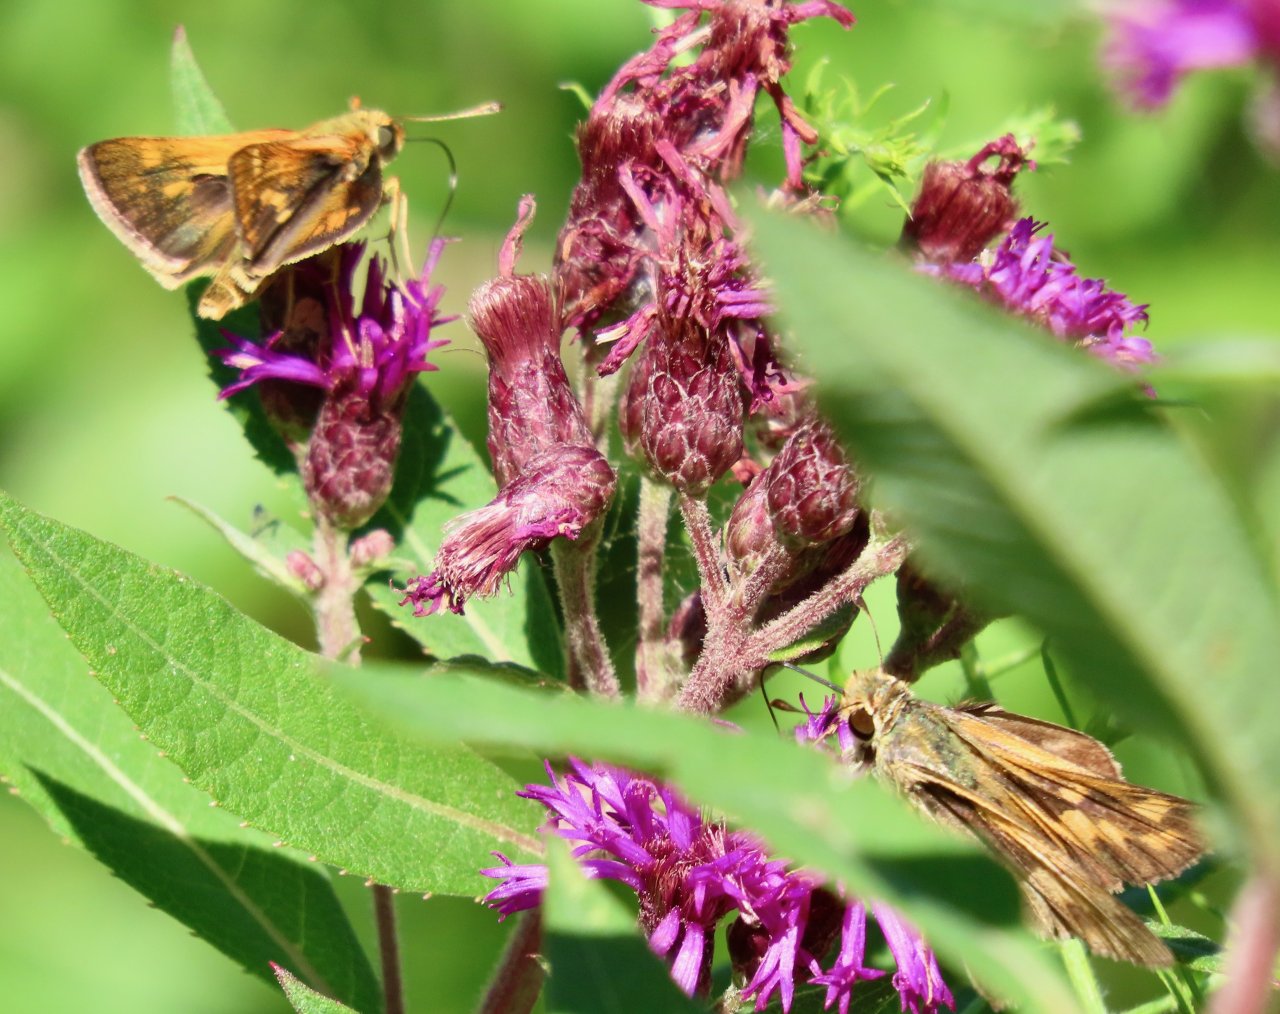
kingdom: Animalia
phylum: Arthropoda
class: Insecta
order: Lepidoptera
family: Hesperiidae
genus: Polites
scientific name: Polites coras
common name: Peck's Skipper
